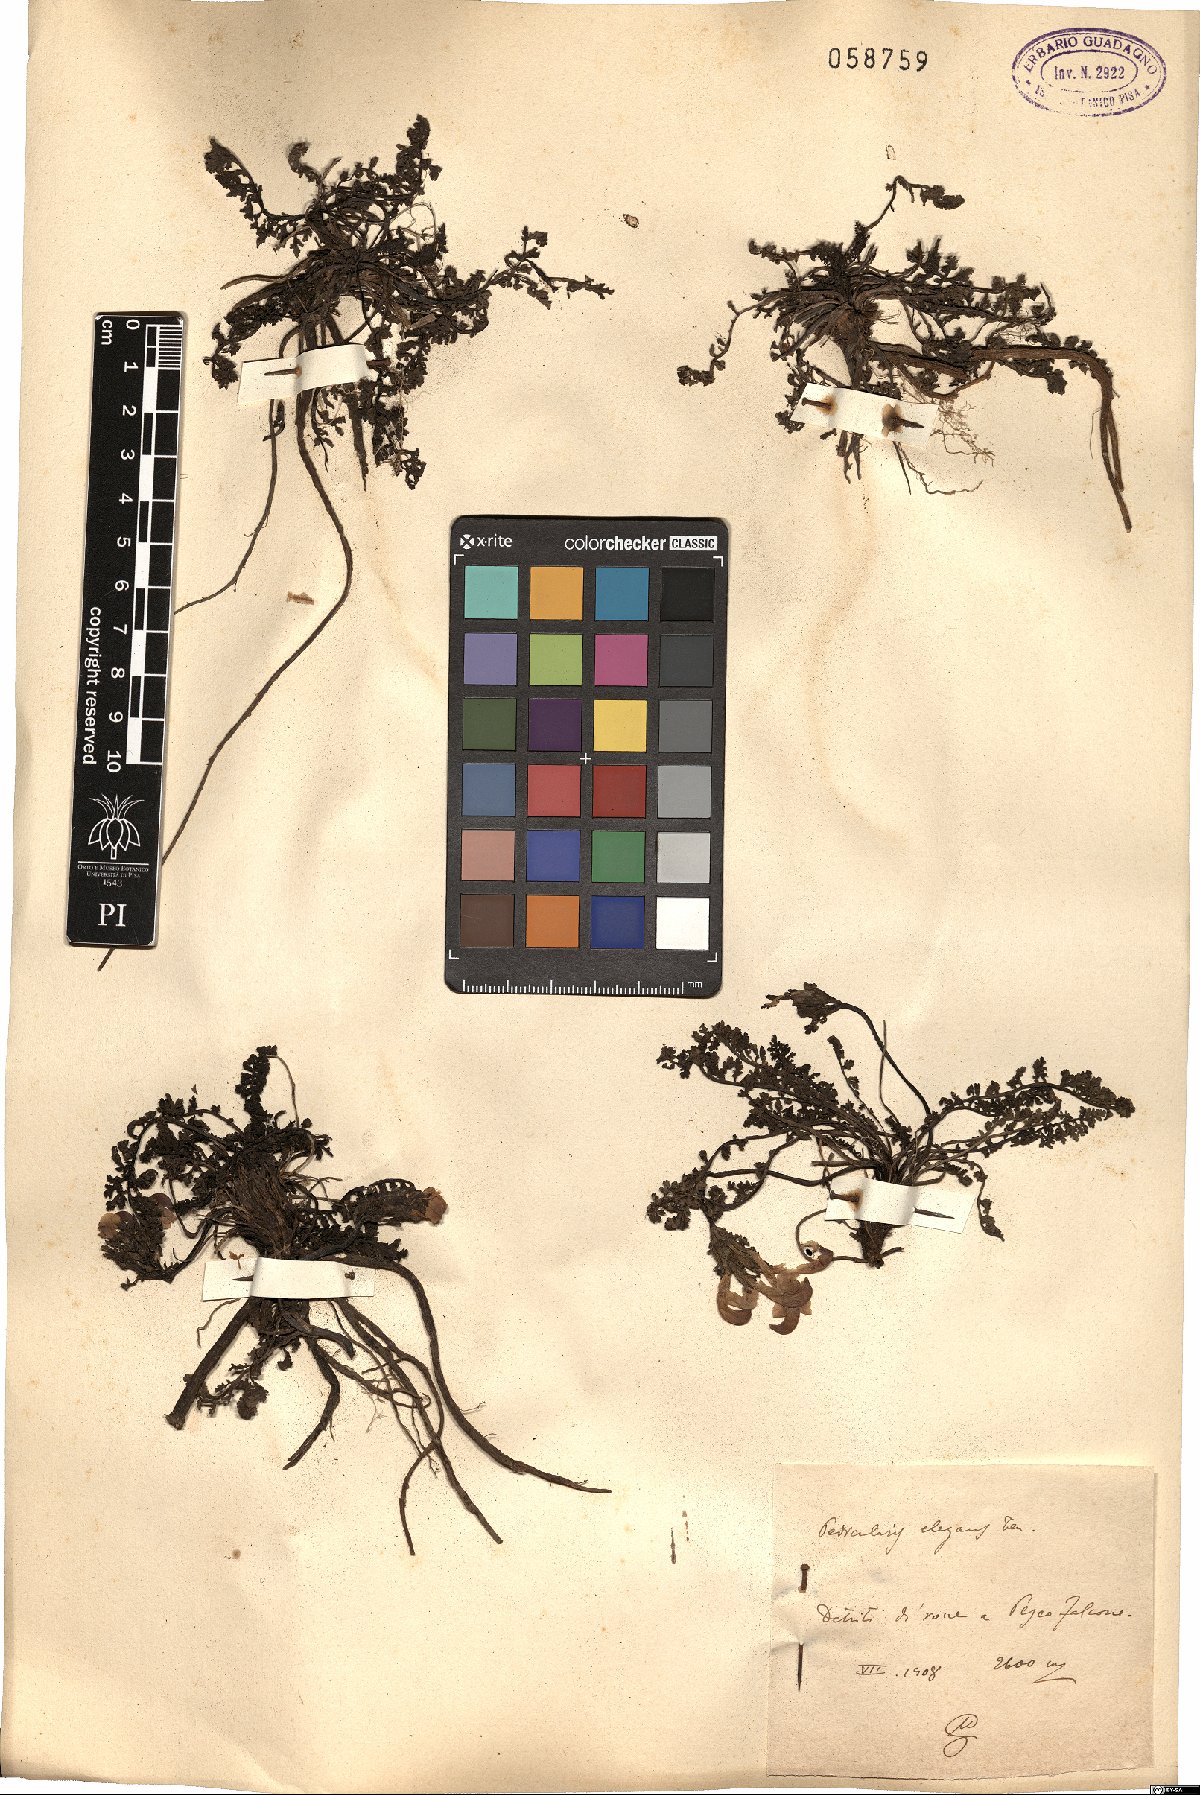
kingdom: Plantae
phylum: Tracheophyta
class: Magnoliopsida
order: Lamiales
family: Orobanchaceae
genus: Pedicularis
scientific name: Pedicularis elegans
